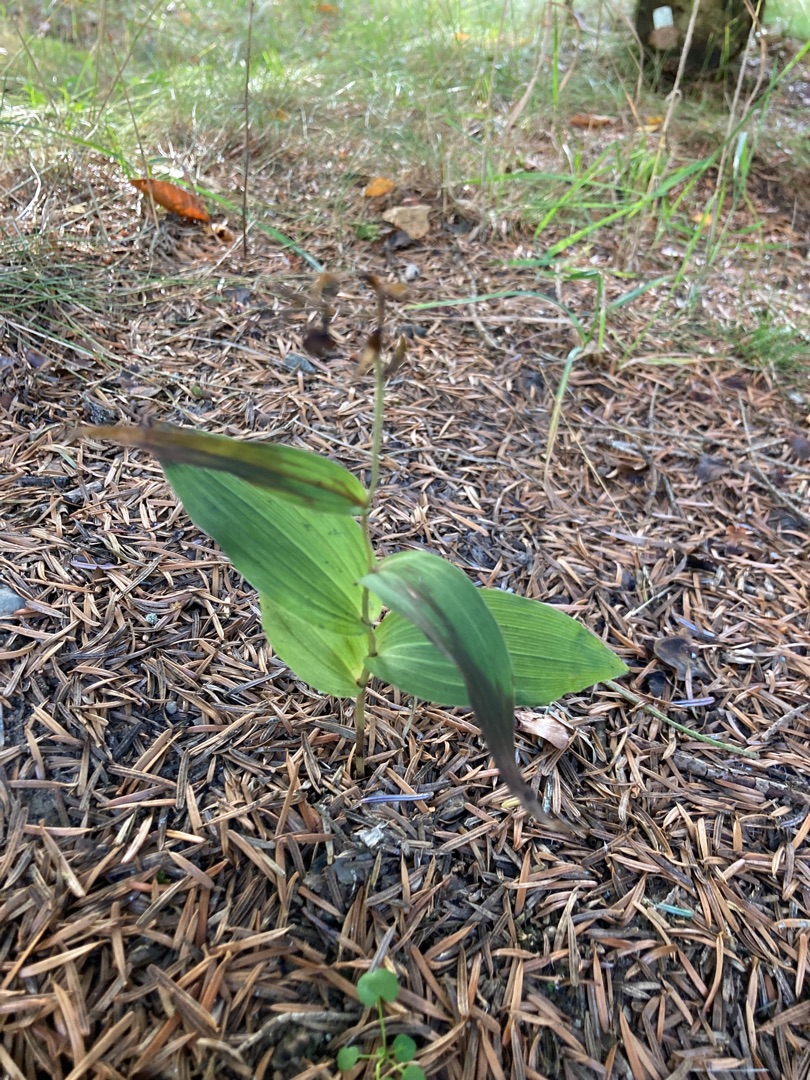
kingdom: Plantae
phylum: Tracheophyta
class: Liliopsida
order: Asparagales
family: Orchidaceae
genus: Epipactis
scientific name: Epipactis helleborine
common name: Skov-hullæbe
